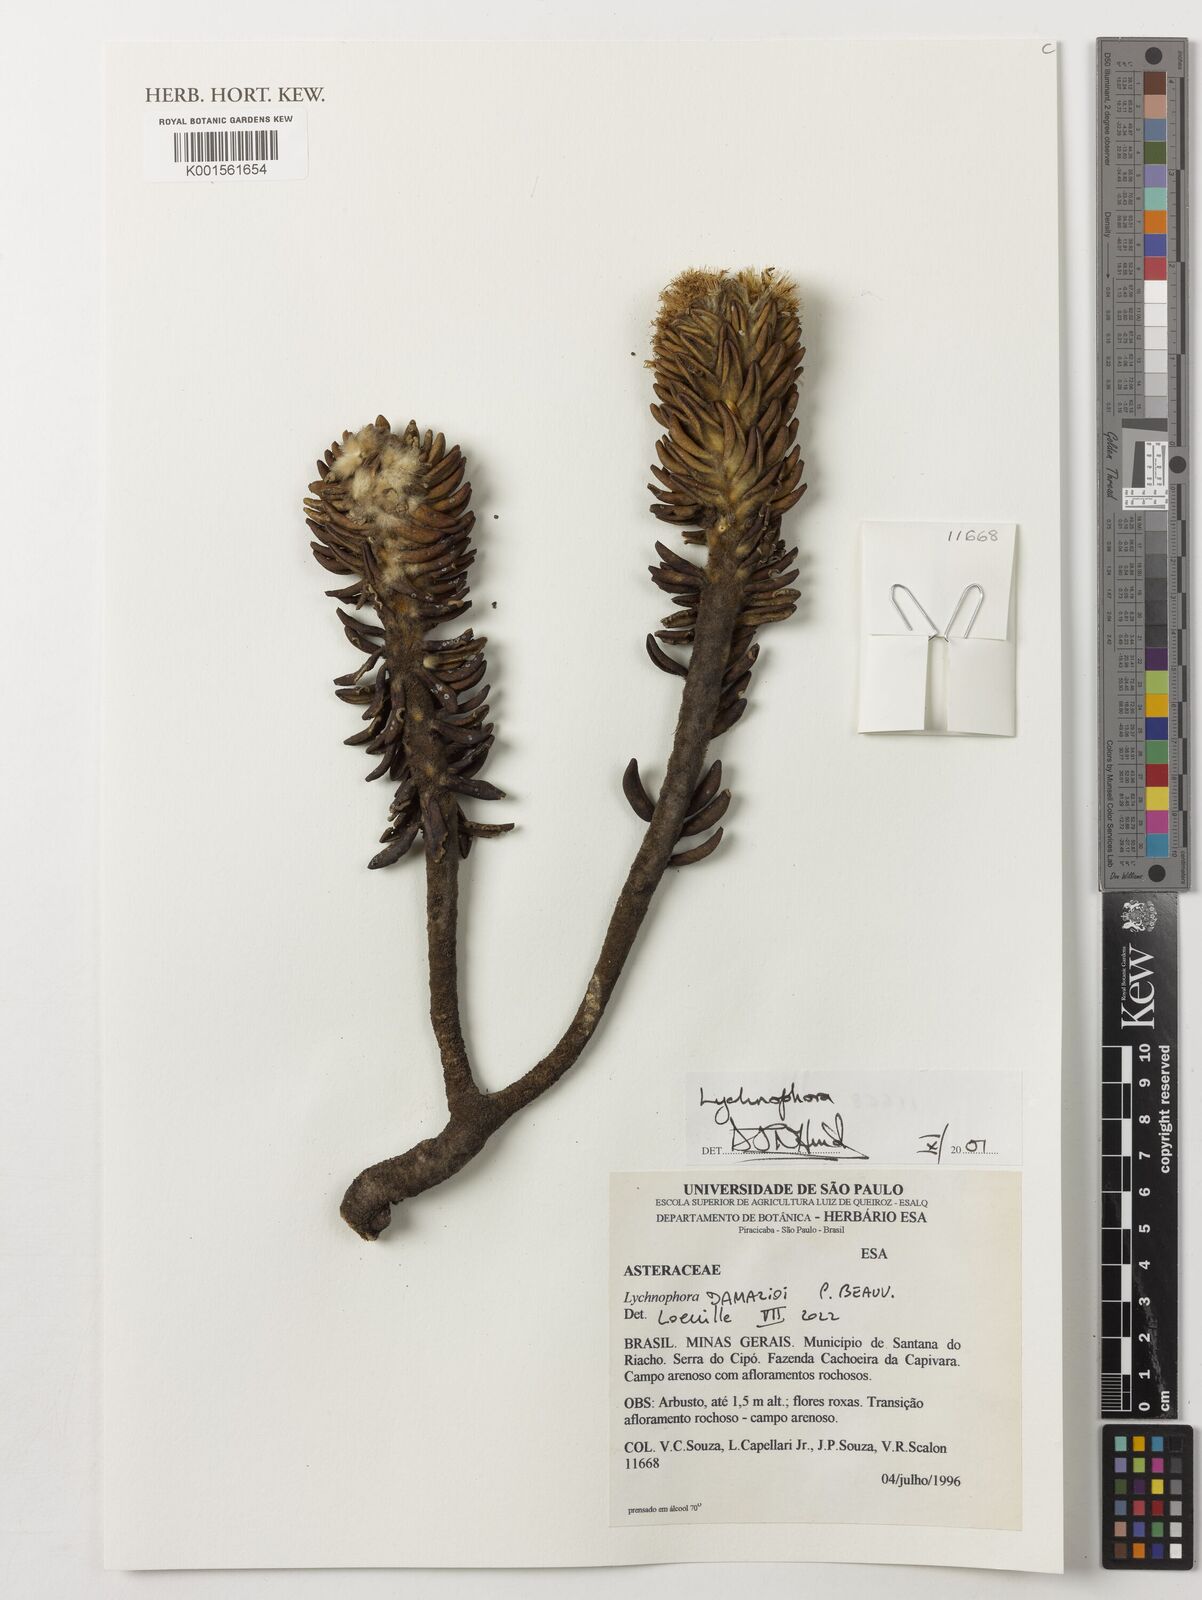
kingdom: Plantae
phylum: Tracheophyta
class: Magnoliopsida
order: Asterales
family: Asteraceae
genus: Lychnophora
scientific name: Lychnophora damazioi
